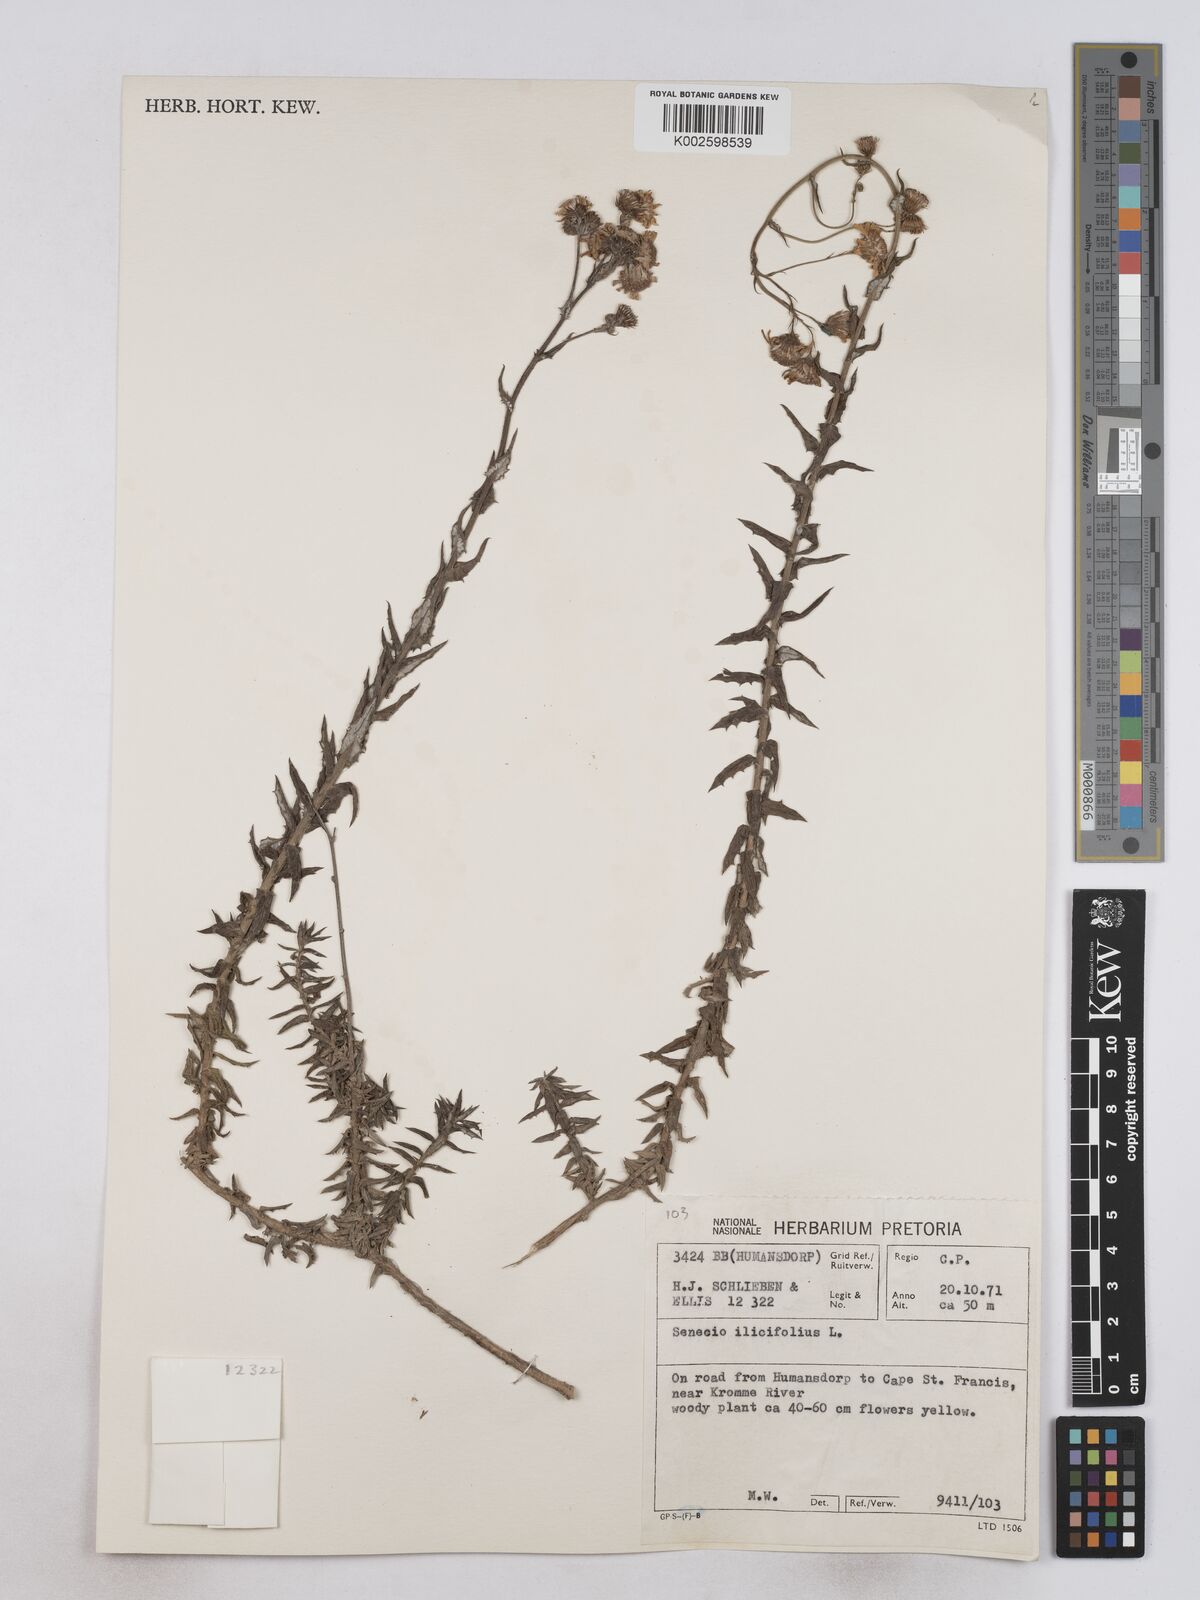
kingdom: Plantae
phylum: Tracheophyta
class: Magnoliopsida
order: Asterales
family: Asteraceae
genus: Senecio
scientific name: Senecio ilicifolius
